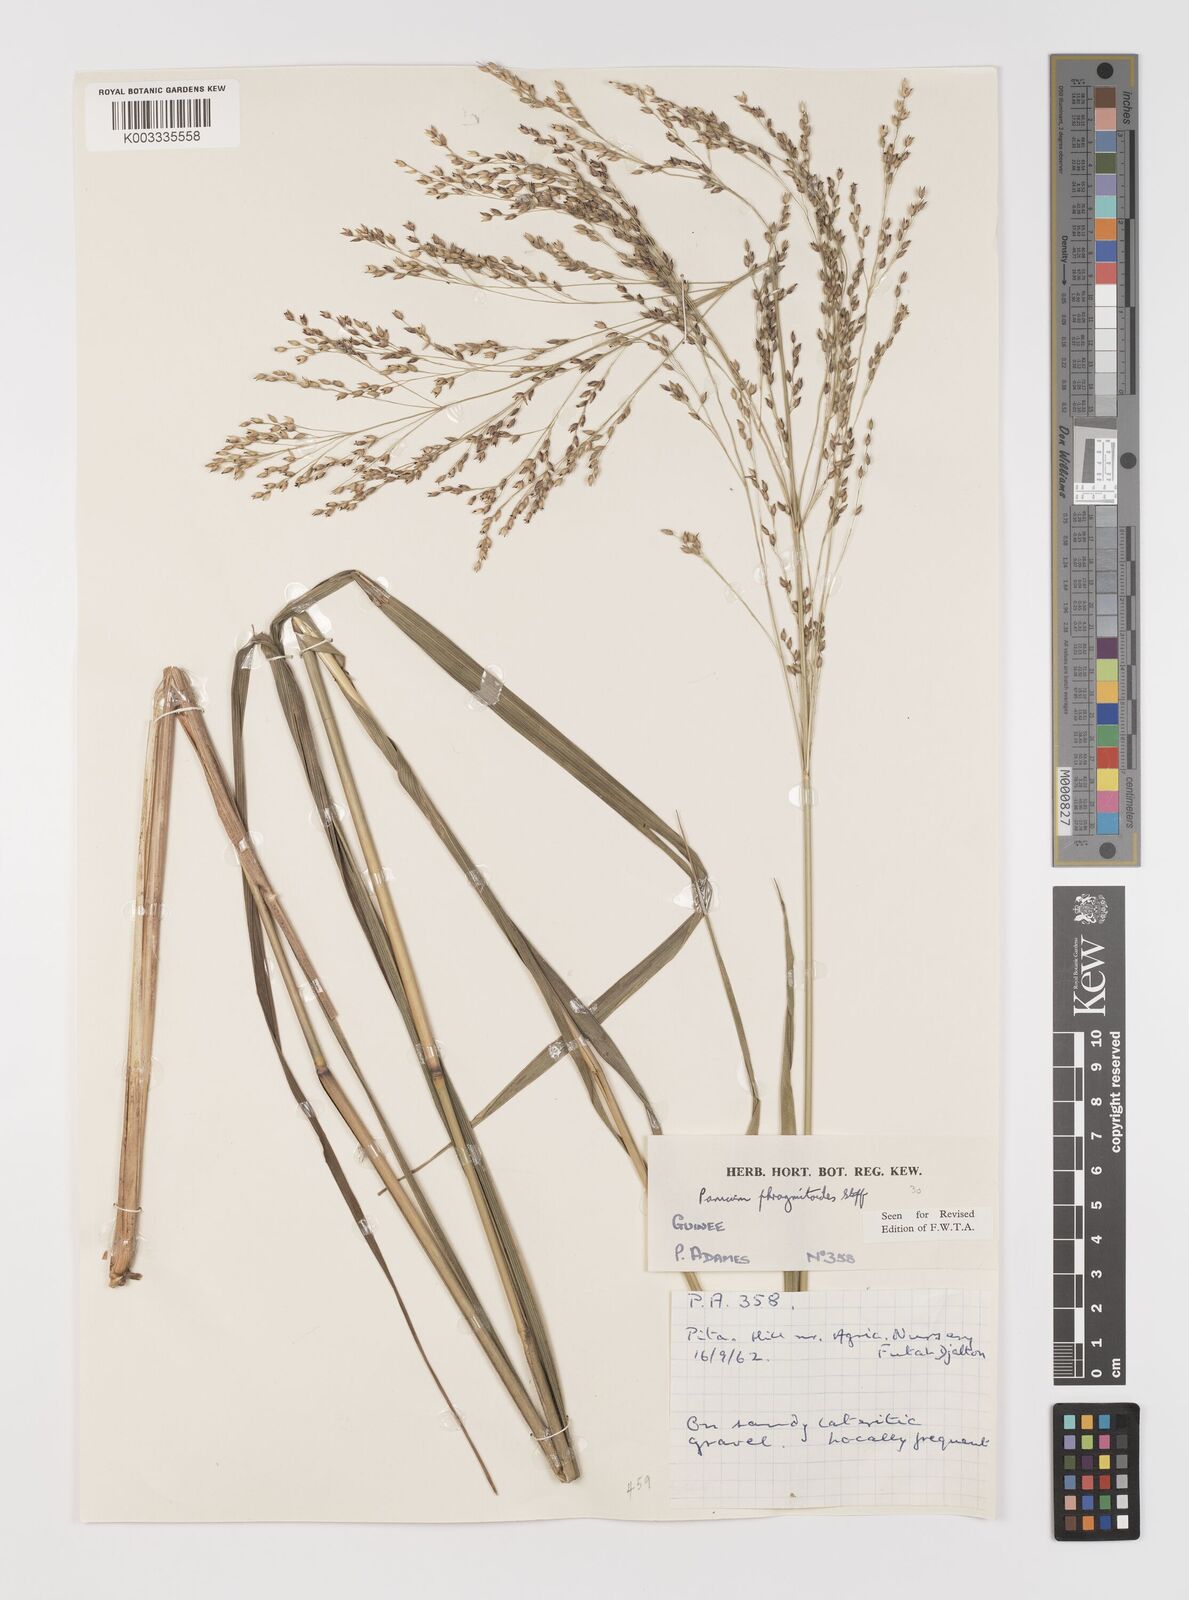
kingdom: Plantae
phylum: Tracheophyta
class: Liliopsida
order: Poales
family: Poaceae
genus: Panicum
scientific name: Panicum phragmitoides
